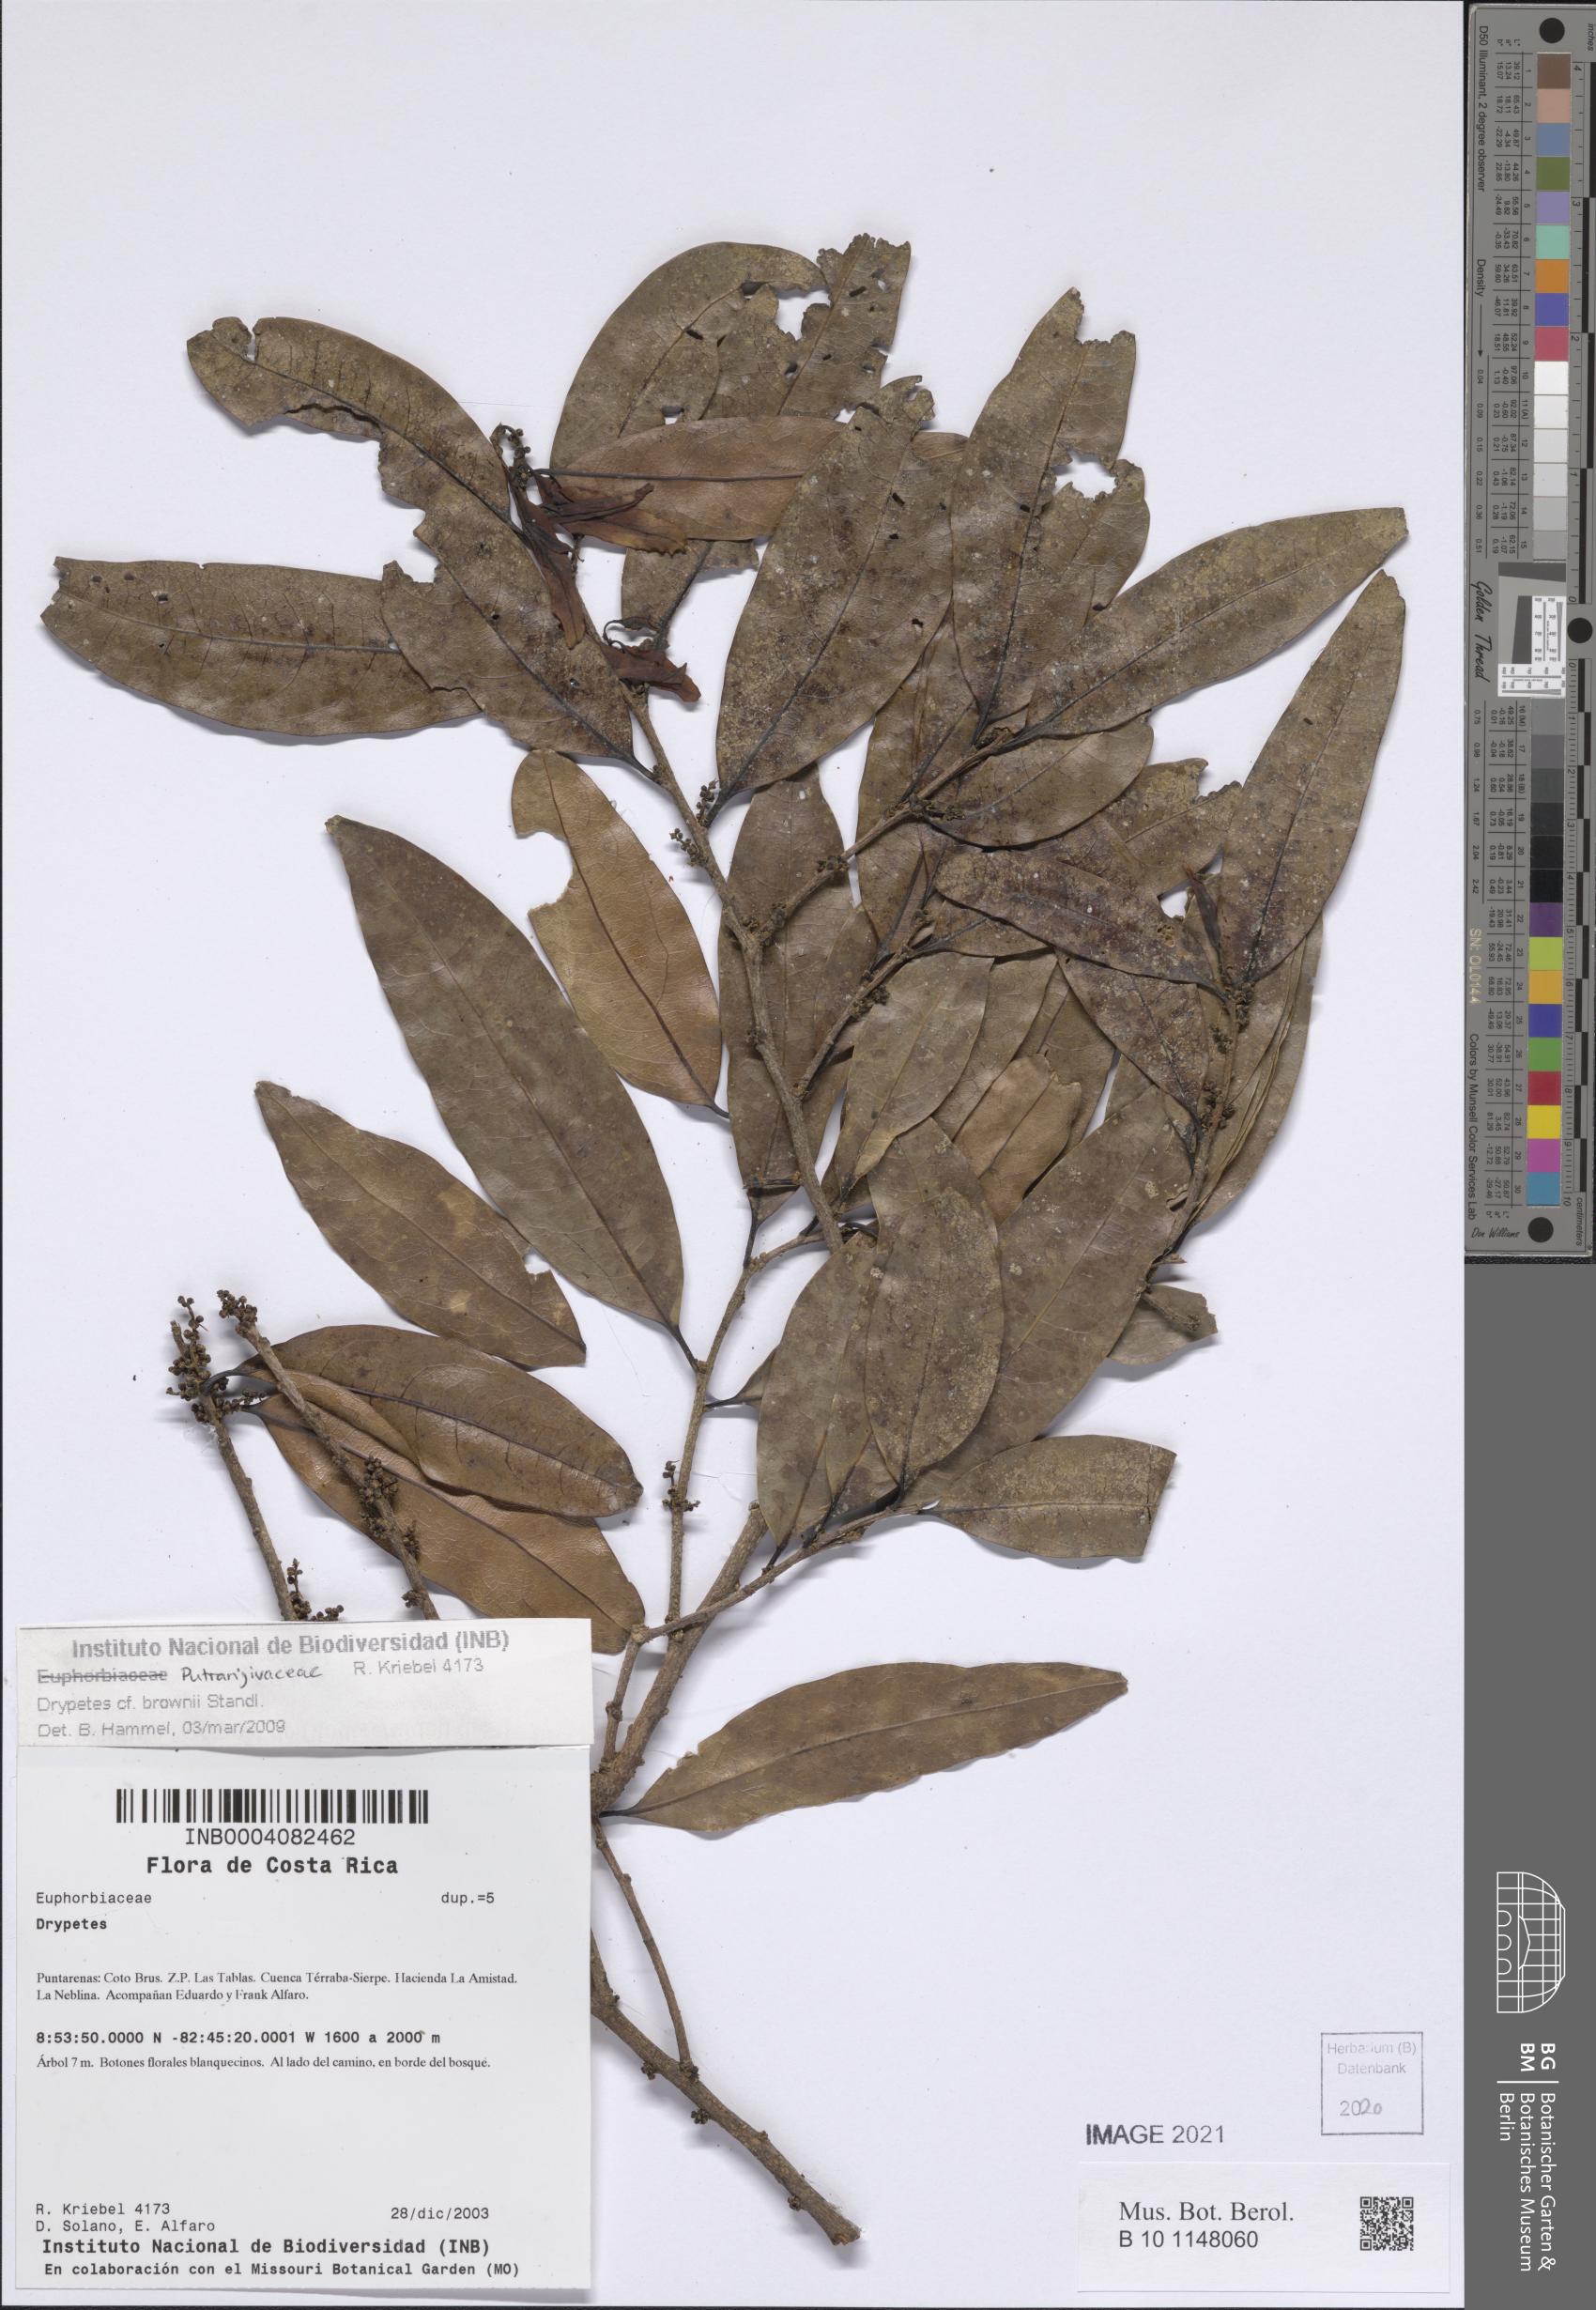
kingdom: Plantae
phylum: Tracheophyta
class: Magnoliopsida
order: Malpighiales
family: Putranjivaceae
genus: Drypetes
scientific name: Drypetes brownii
